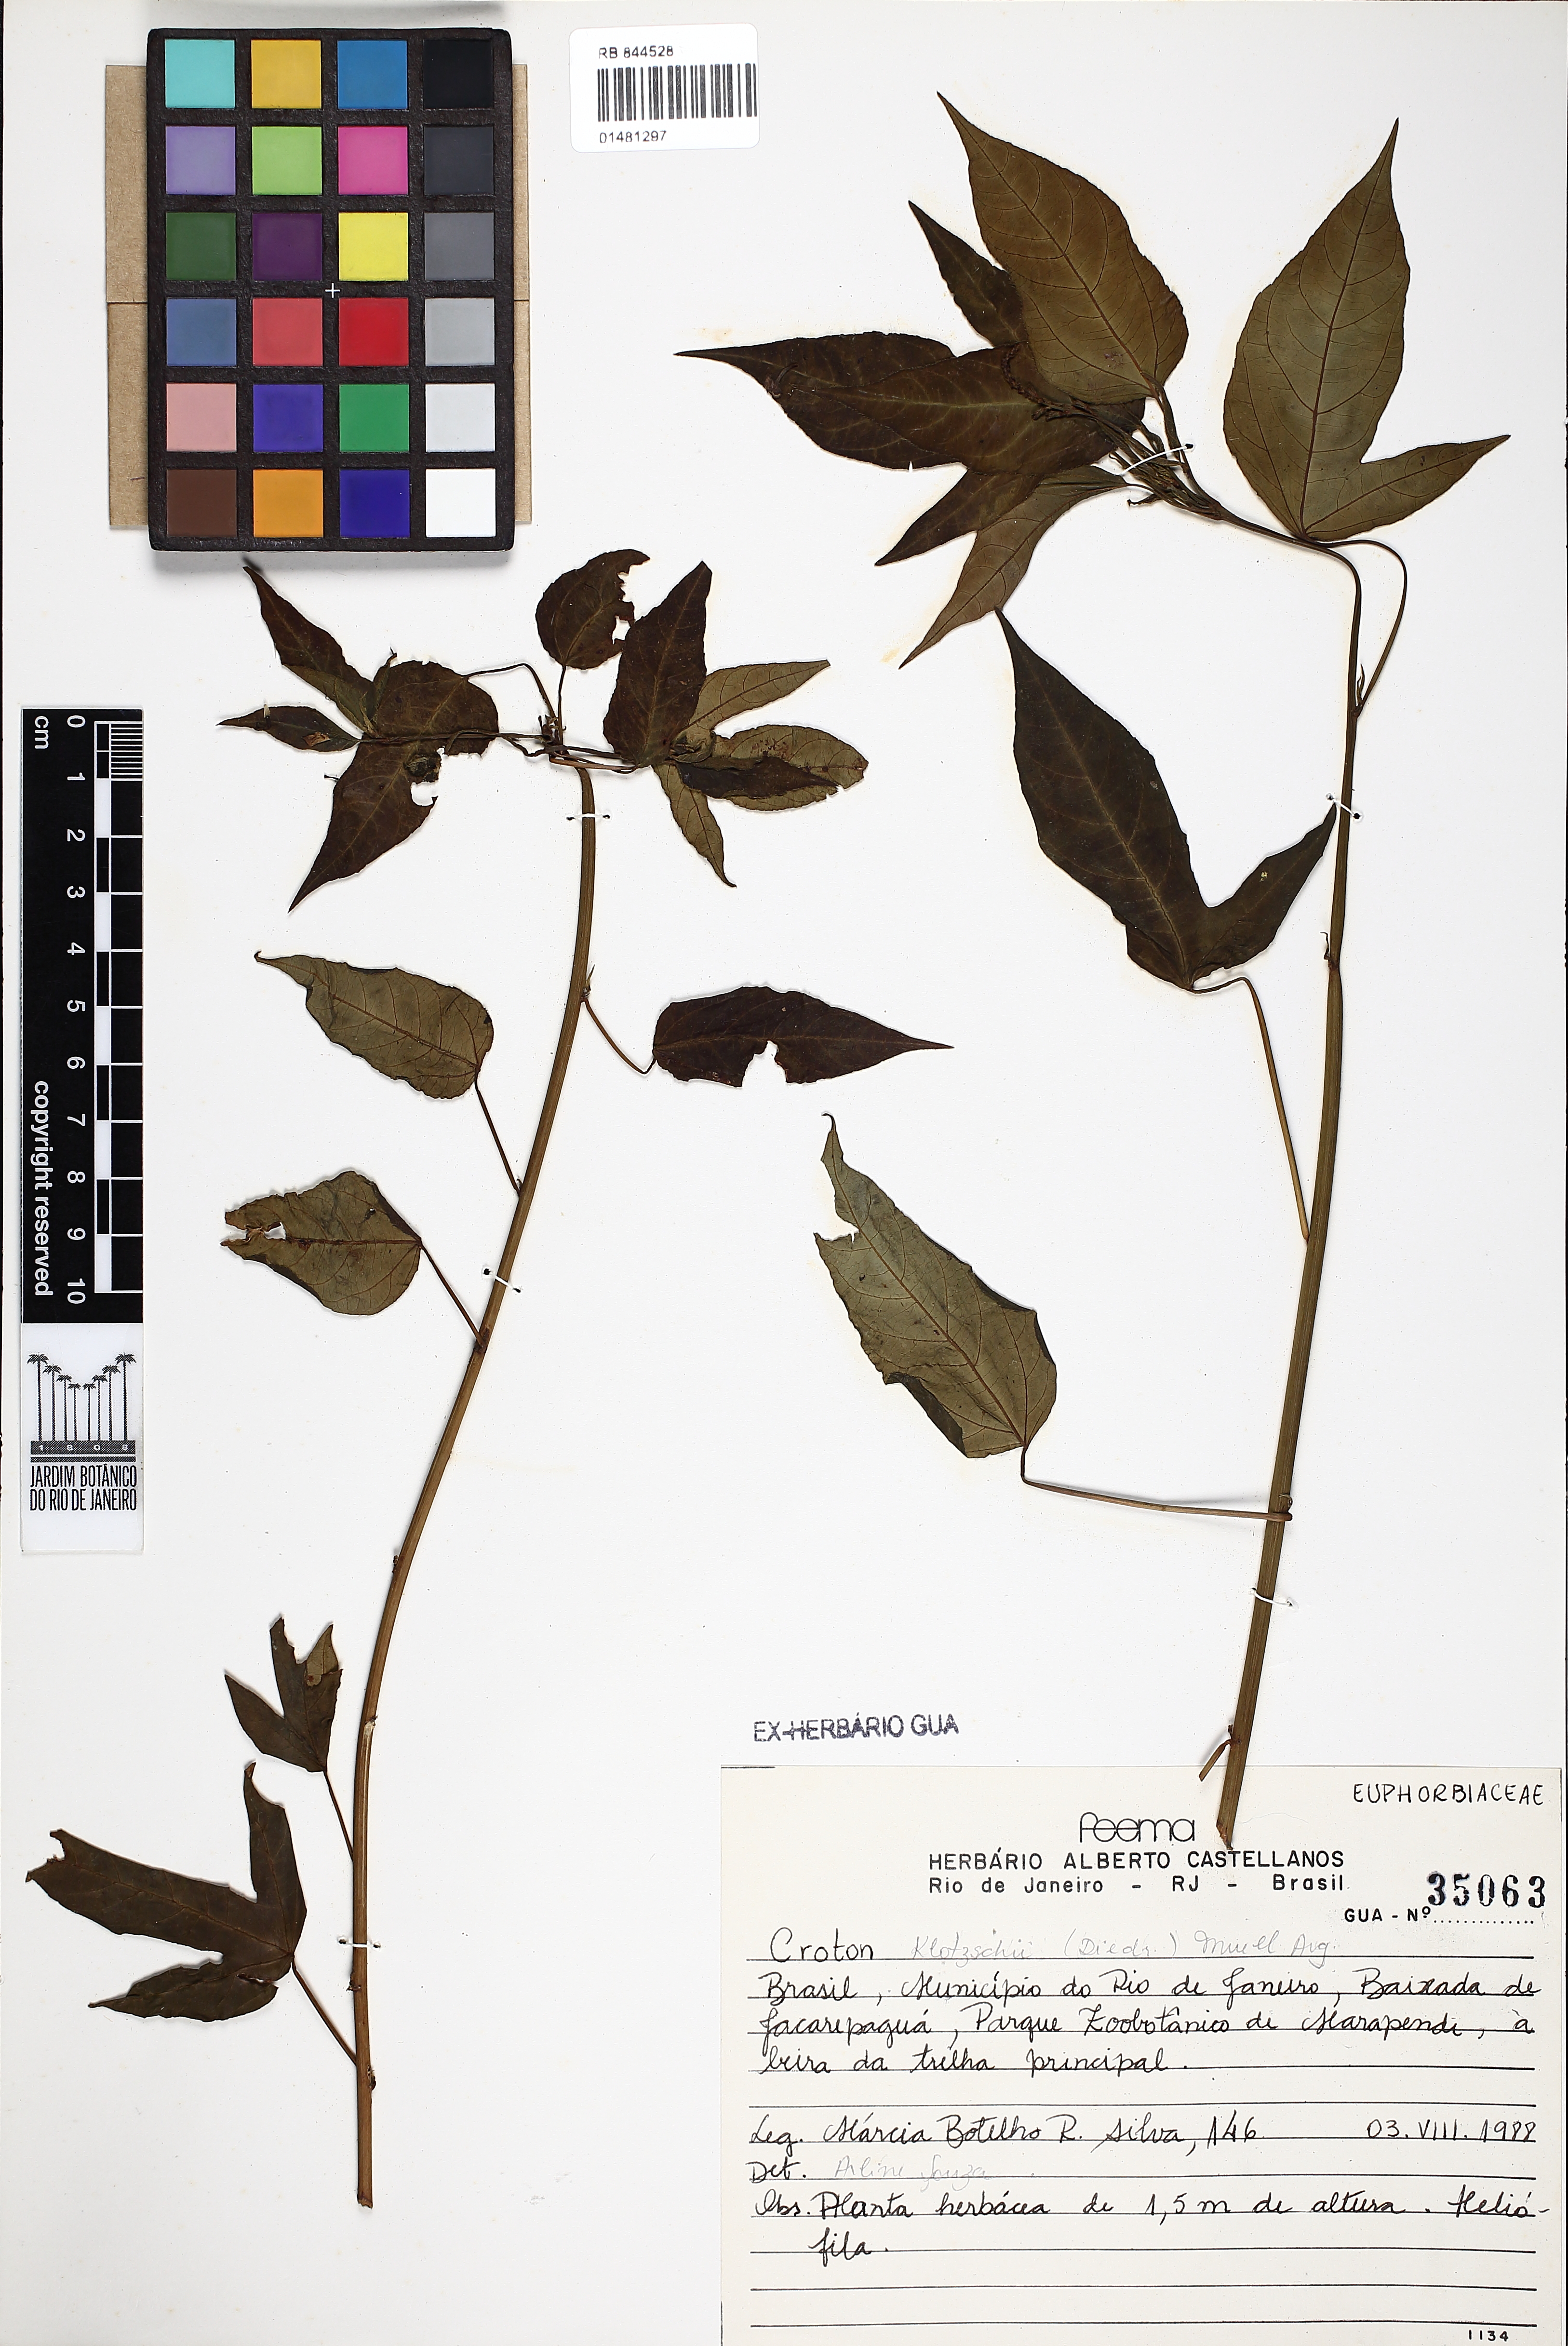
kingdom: Plantae
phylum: Tracheophyta
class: Magnoliopsida
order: Malpighiales
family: Euphorbiaceae
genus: Astraea
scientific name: Astraea macroura
